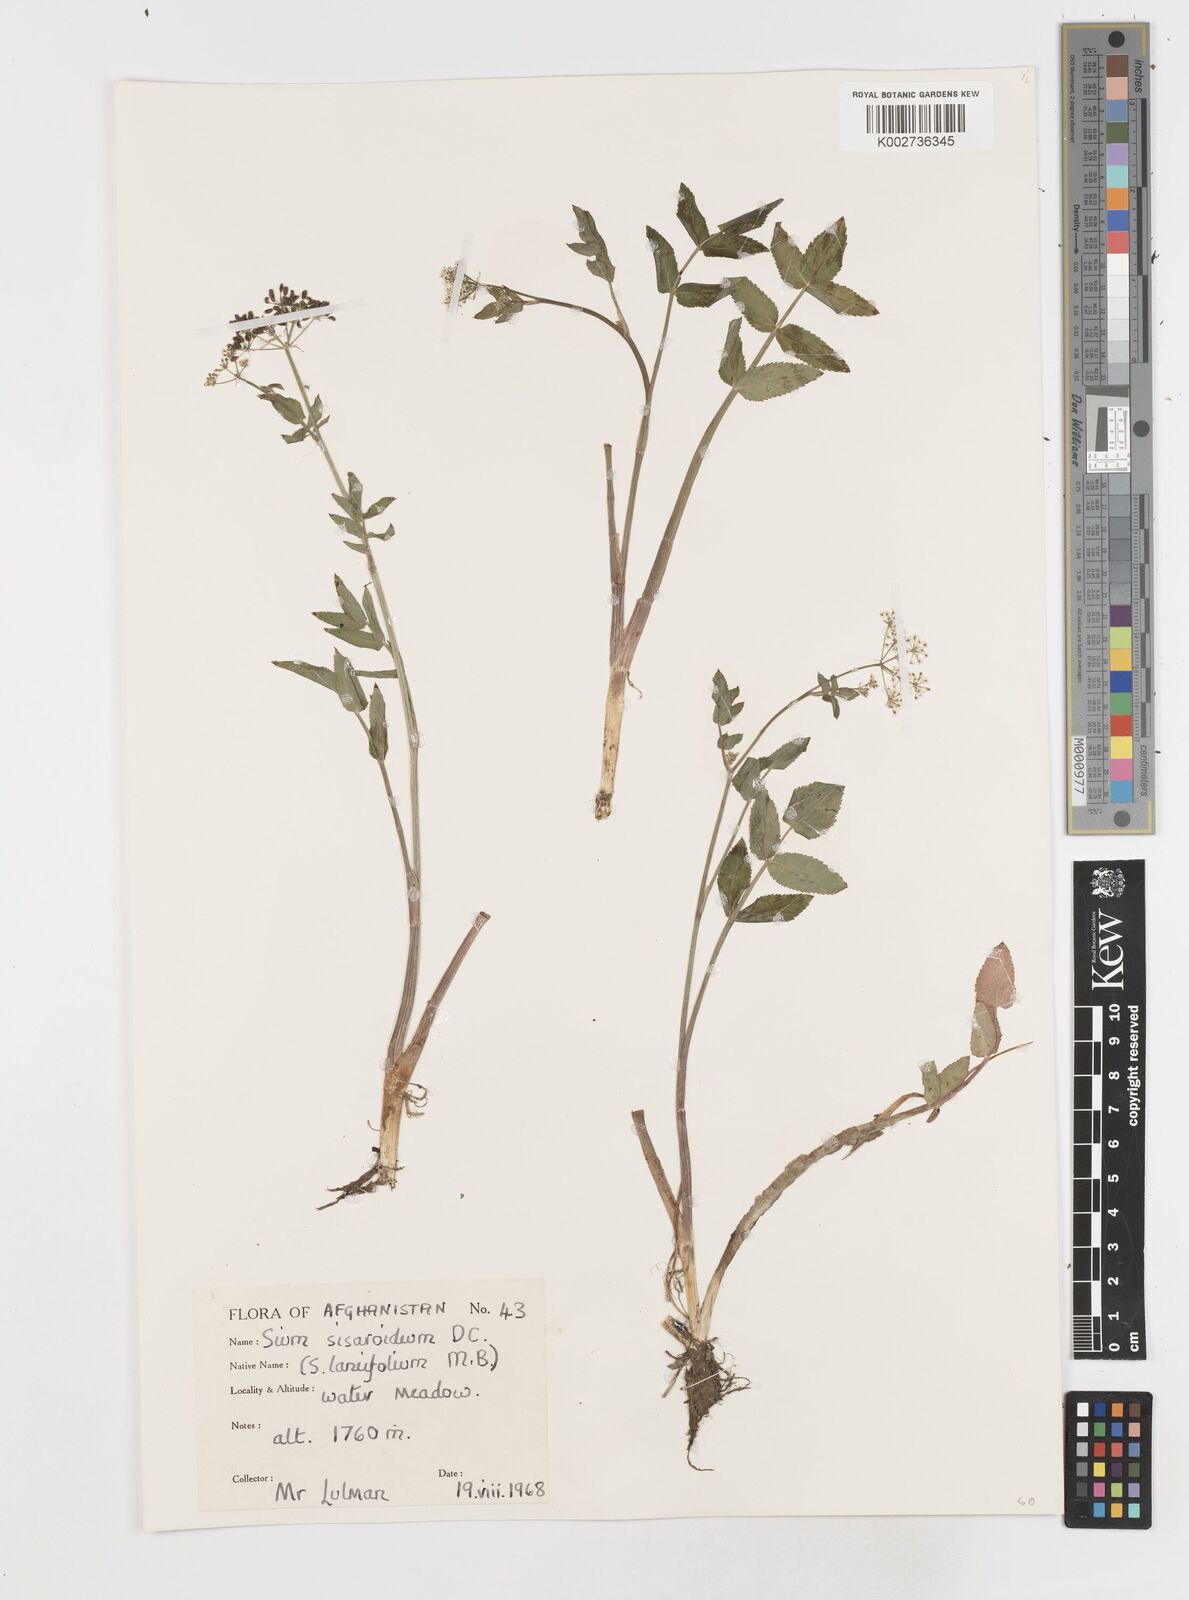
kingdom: Plantae
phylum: Tracheophyta
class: Magnoliopsida
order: Apiales
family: Apiaceae
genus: Sium
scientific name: Sium sisarum
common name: Skirret
